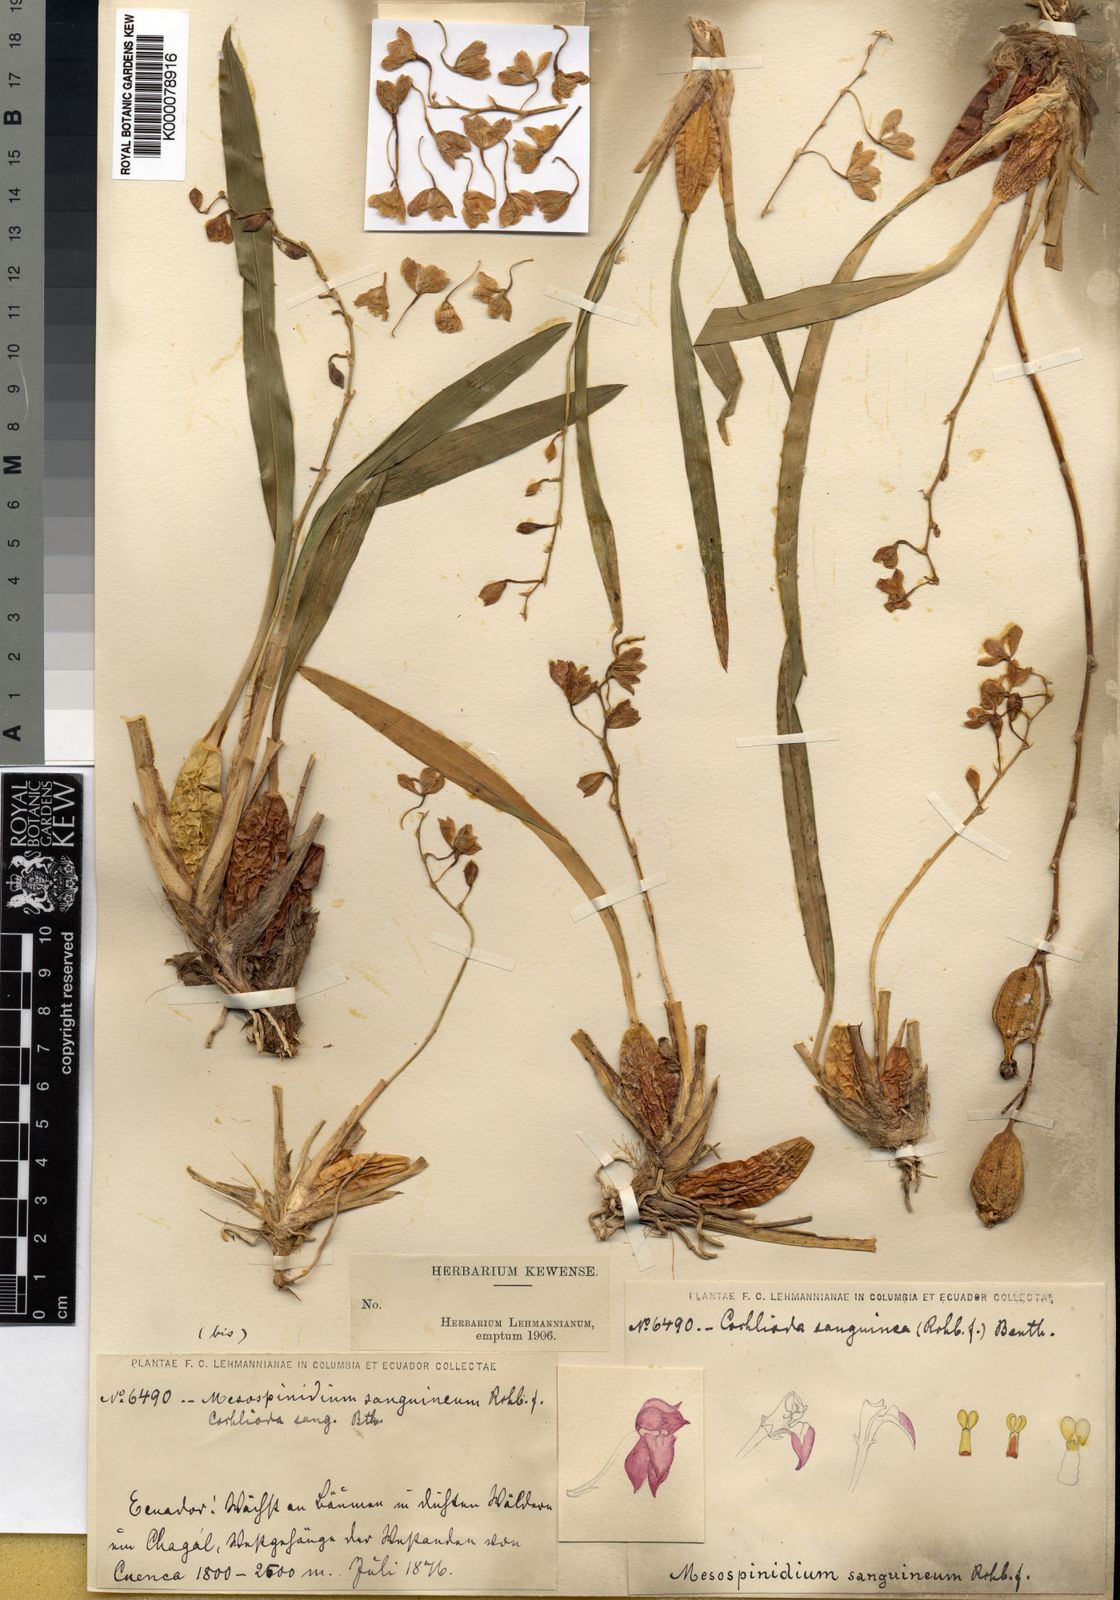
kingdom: Plantae
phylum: Tracheophyta
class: Liliopsida
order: Asparagales
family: Orchidaceae
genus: Oncidium
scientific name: Oncidium strictum
